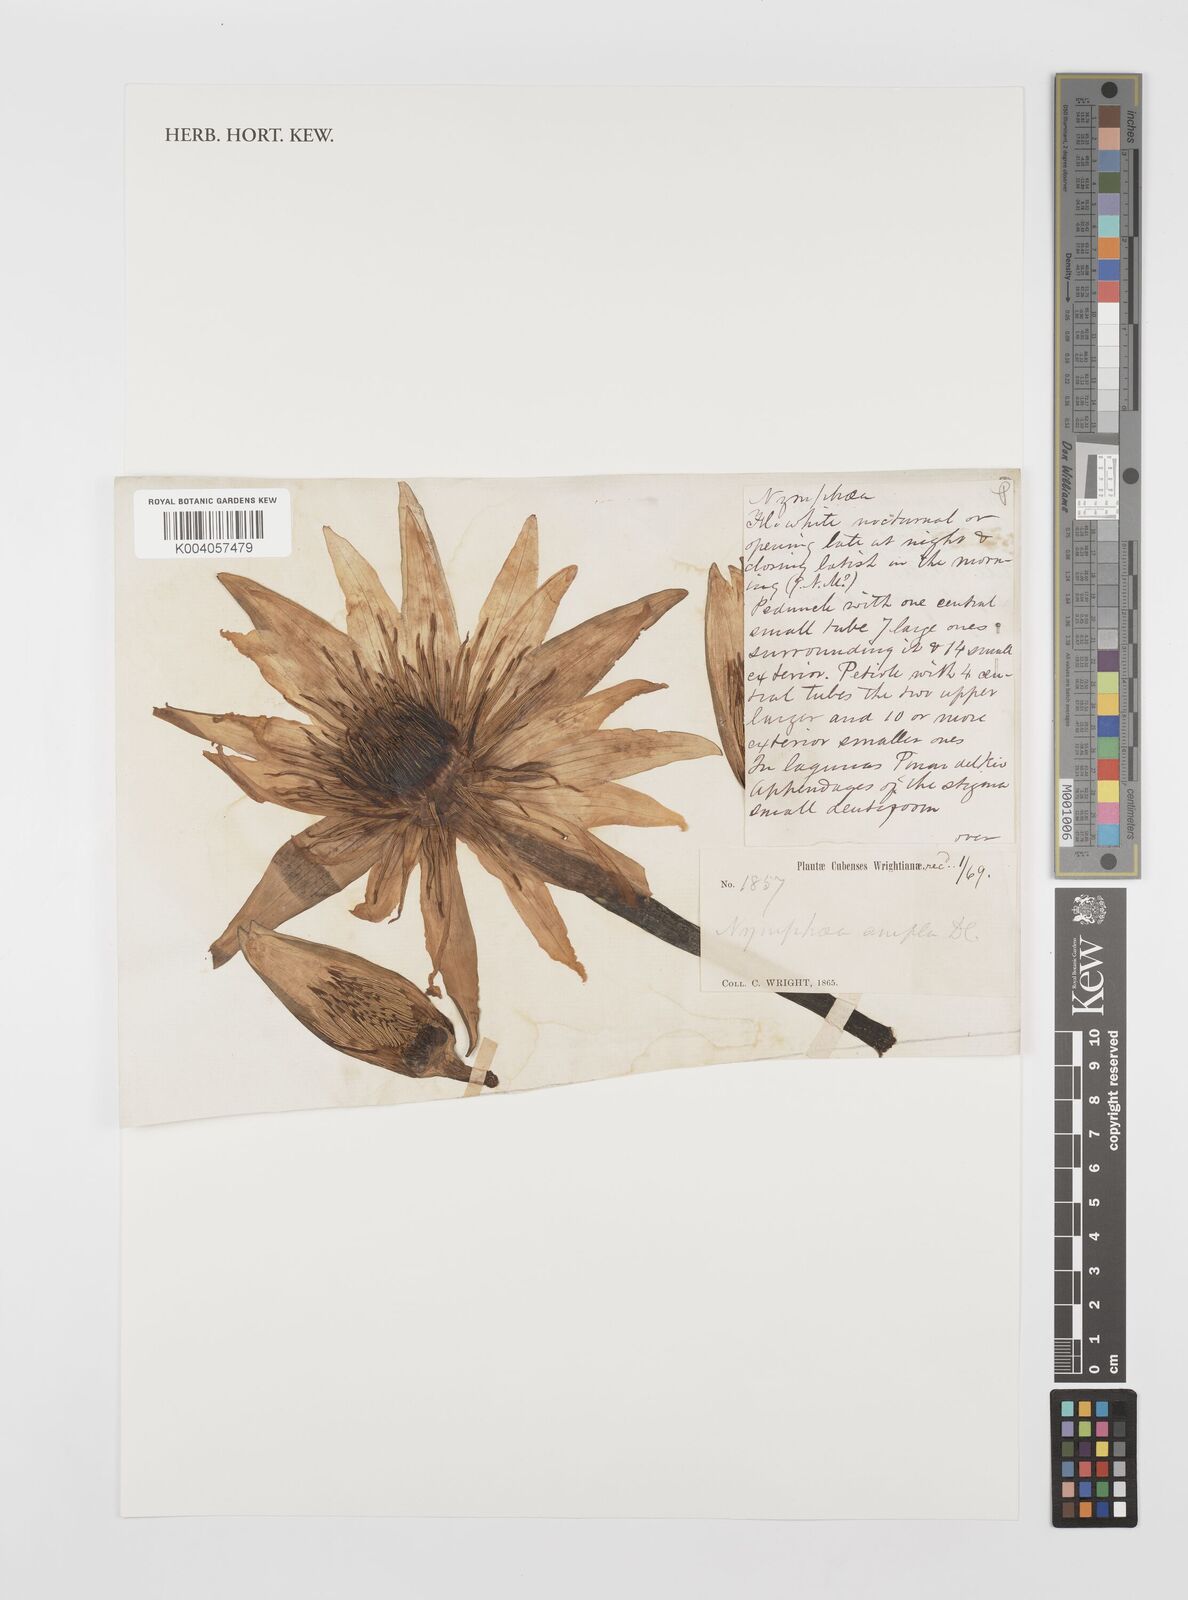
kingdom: Plantae
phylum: Tracheophyta
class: Magnoliopsida
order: Nymphaeales
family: Nymphaeaceae
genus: Nymphaea
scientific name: Nymphaea ampla
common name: Dotleaf waterlily
